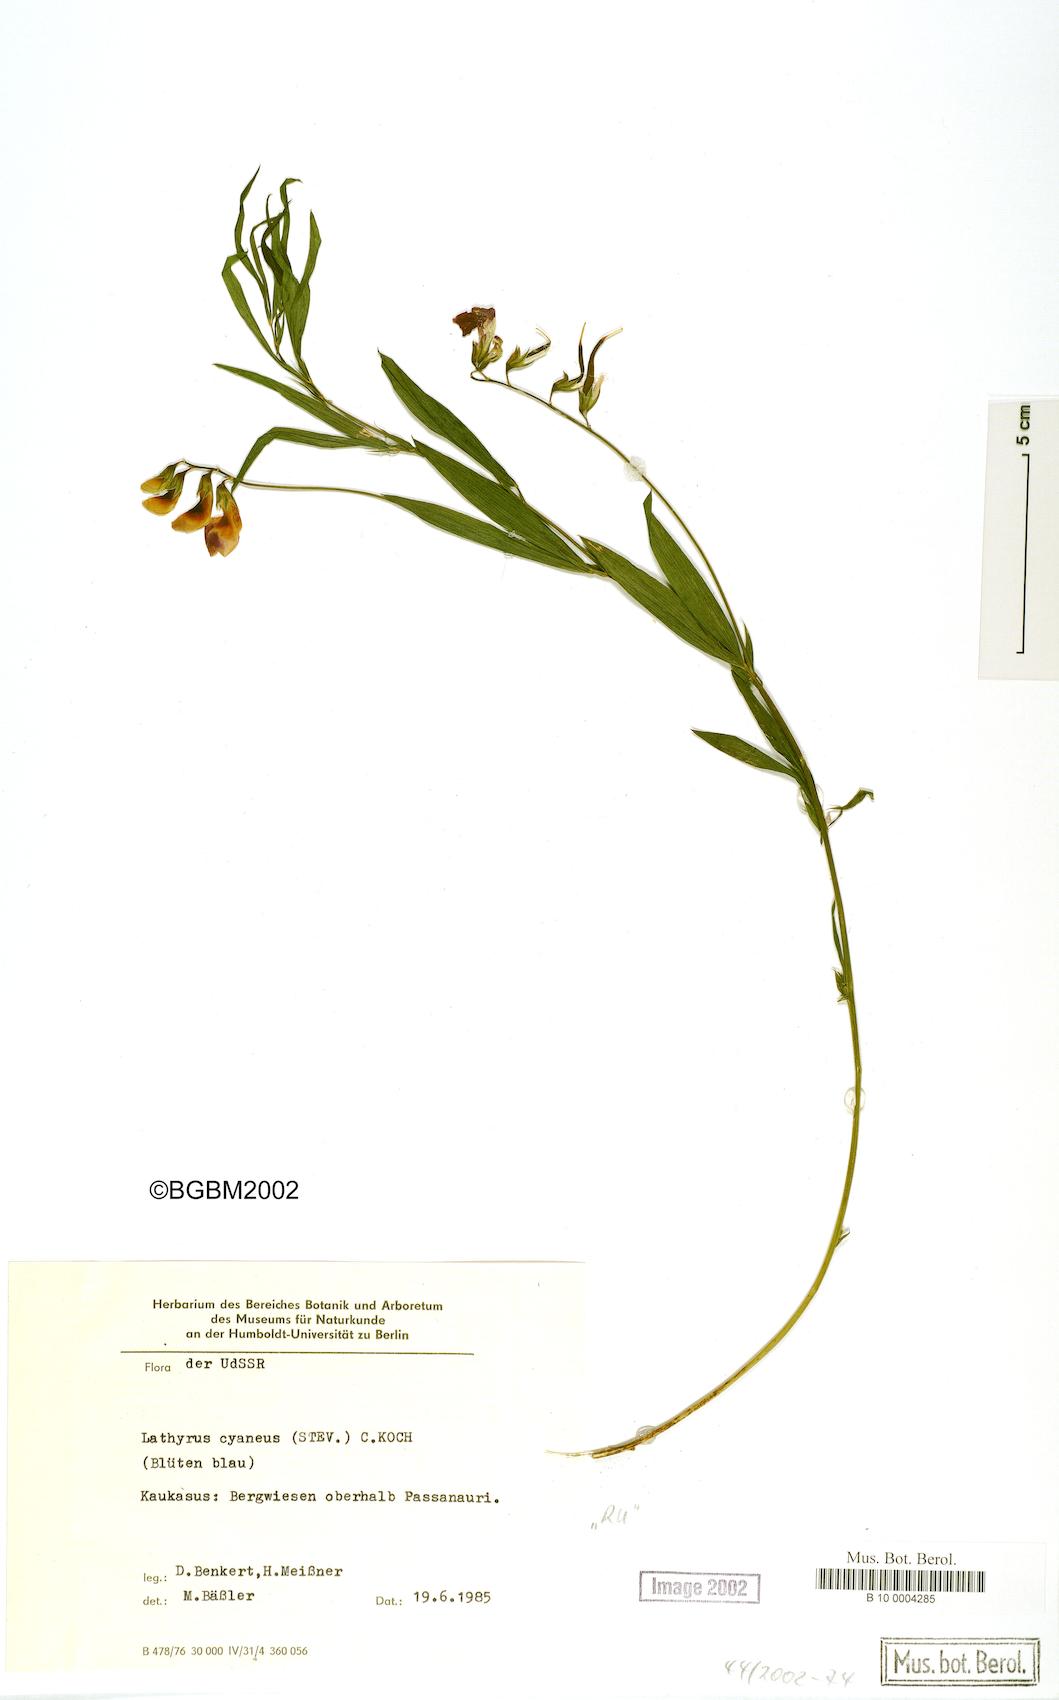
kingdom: Plantae
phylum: Tracheophyta
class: Magnoliopsida
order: Fabales
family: Fabaceae
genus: Lathyrus
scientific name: Lathyrus cyaneus
